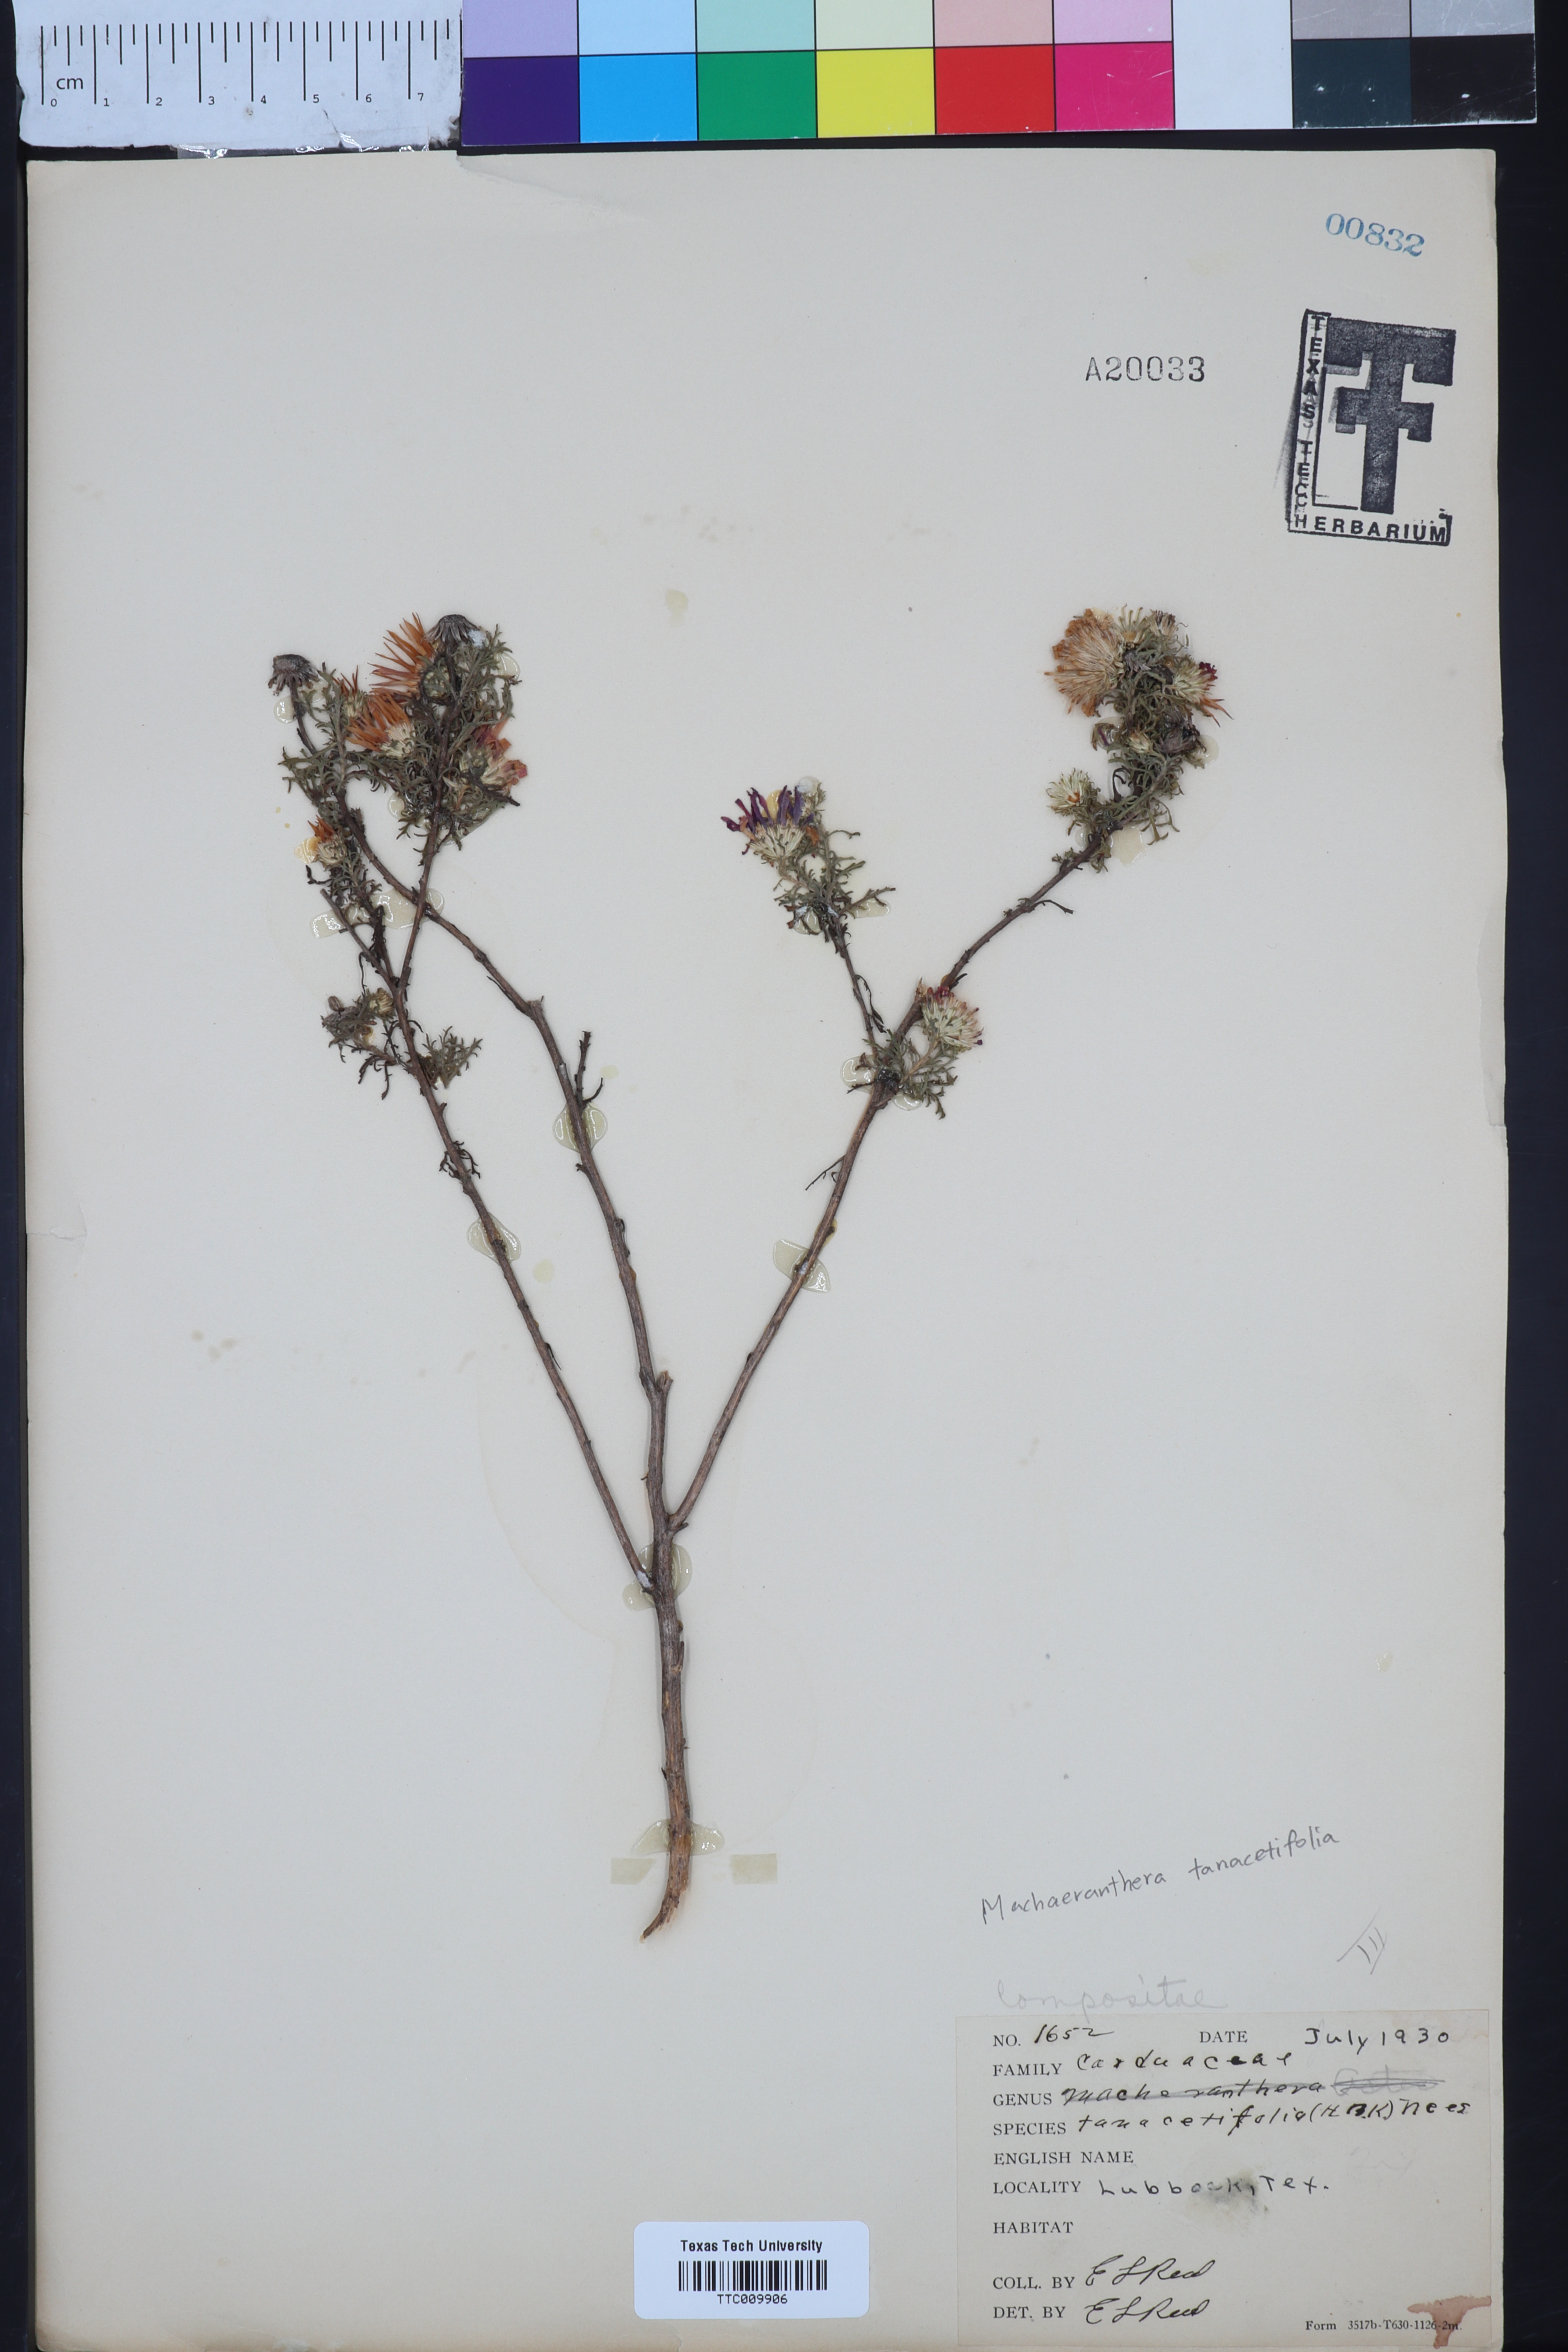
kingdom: Plantae
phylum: Tracheophyta
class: Magnoliopsida
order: Asterales
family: Asteraceae
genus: Machaeranthera
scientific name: Machaeranthera tanacetifolia
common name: Tansy-aster
